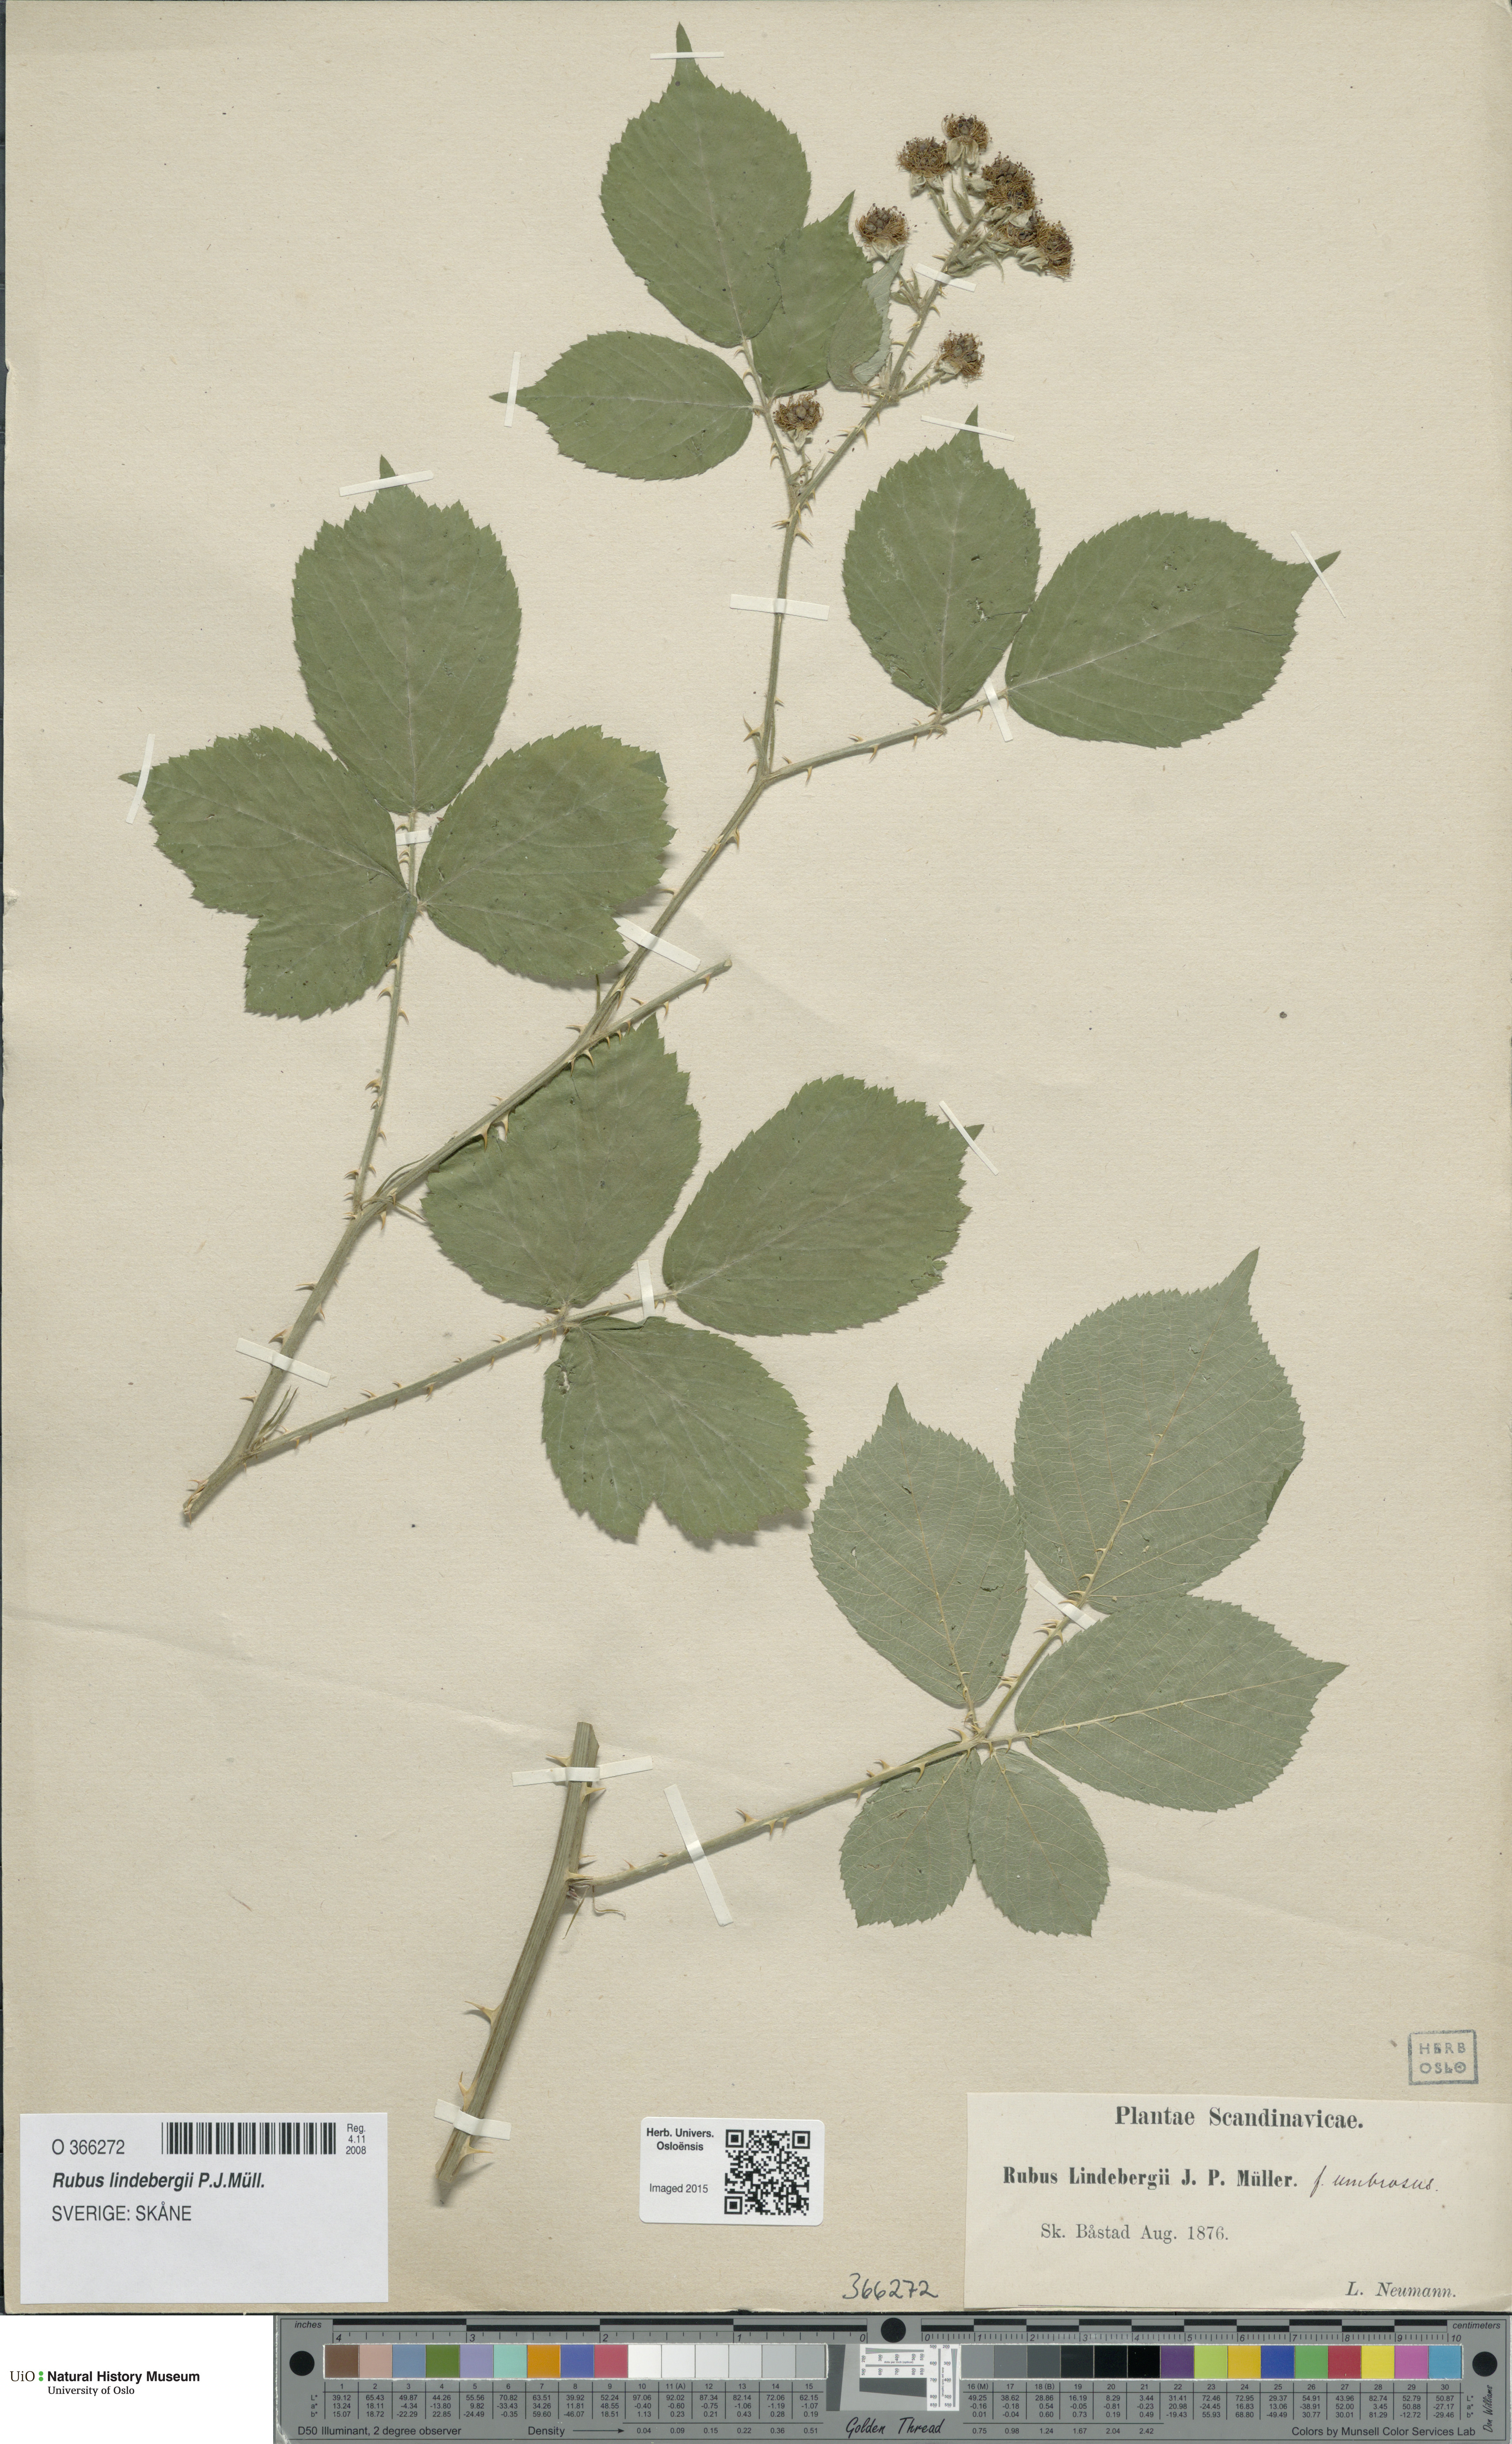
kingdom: Plantae
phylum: Tracheophyta
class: Magnoliopsida
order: Rosales
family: Rosaceae
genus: Rubus
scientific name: Rubus lindebergii
